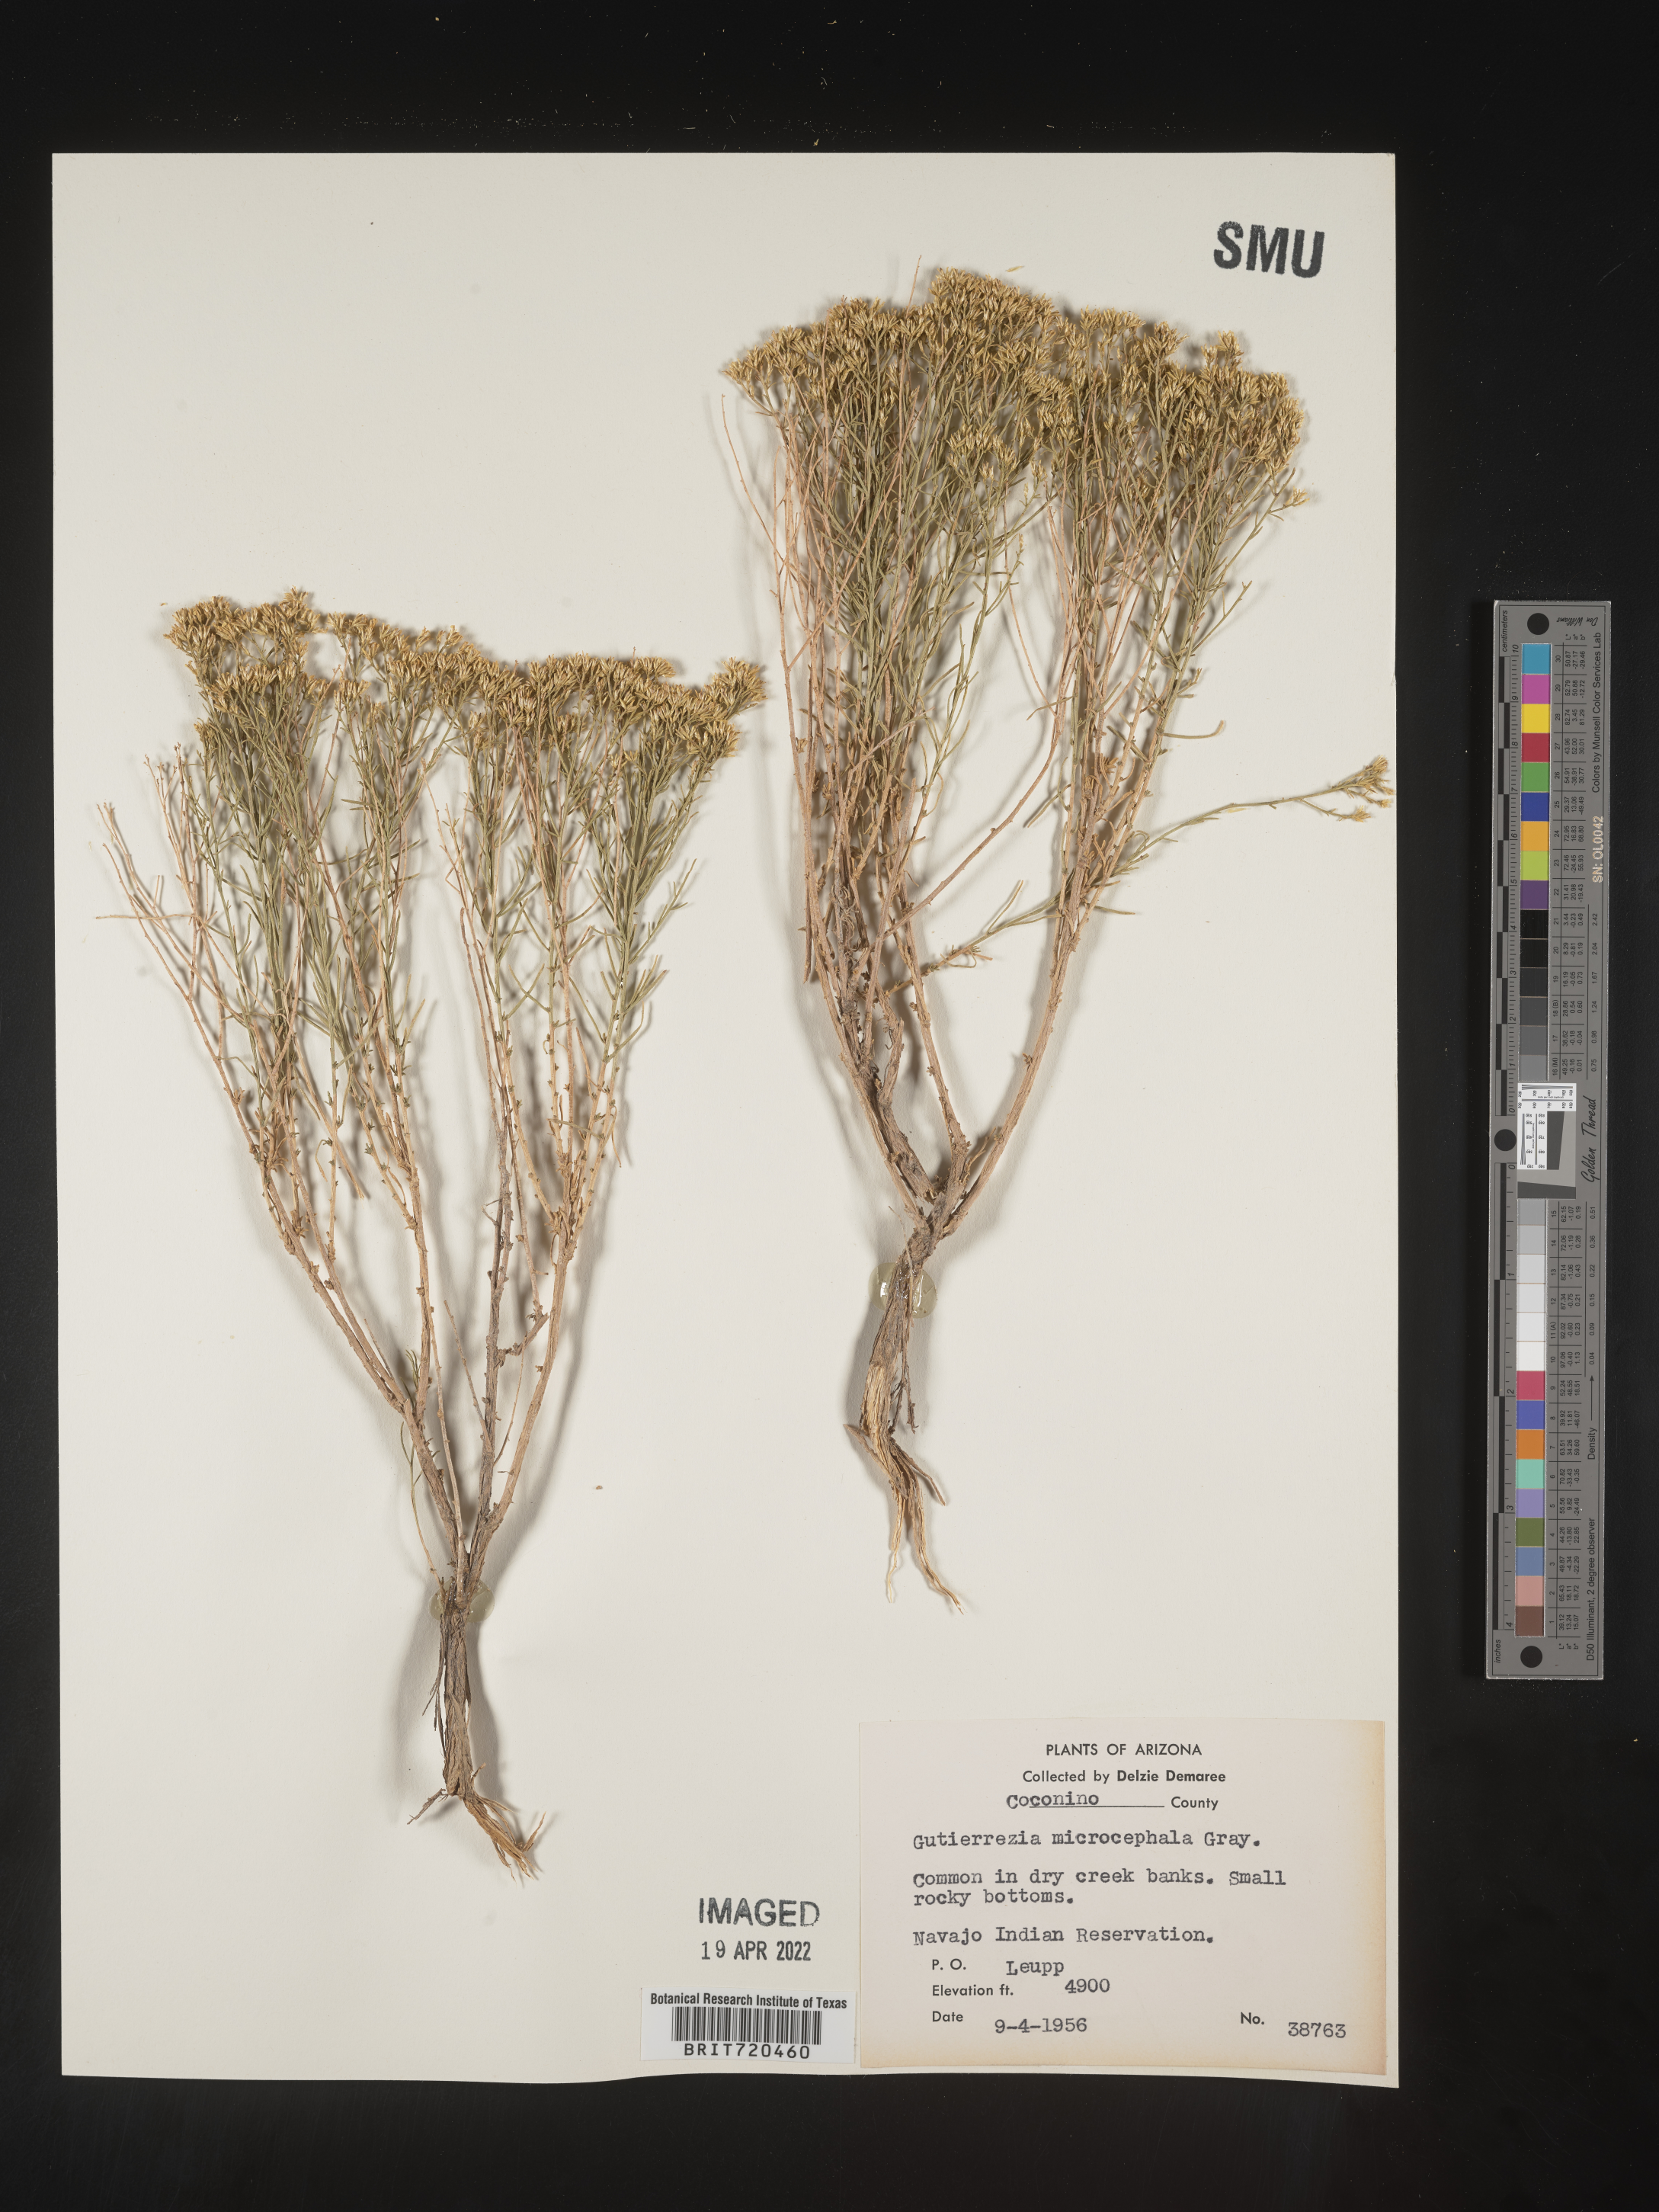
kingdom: Plantae
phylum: Tracheophyta
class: Magnoliopsida
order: Asterales
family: Asteraceae
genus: Gutierrezia
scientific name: Gutierrezia microcephala
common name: Thread snakeweed
